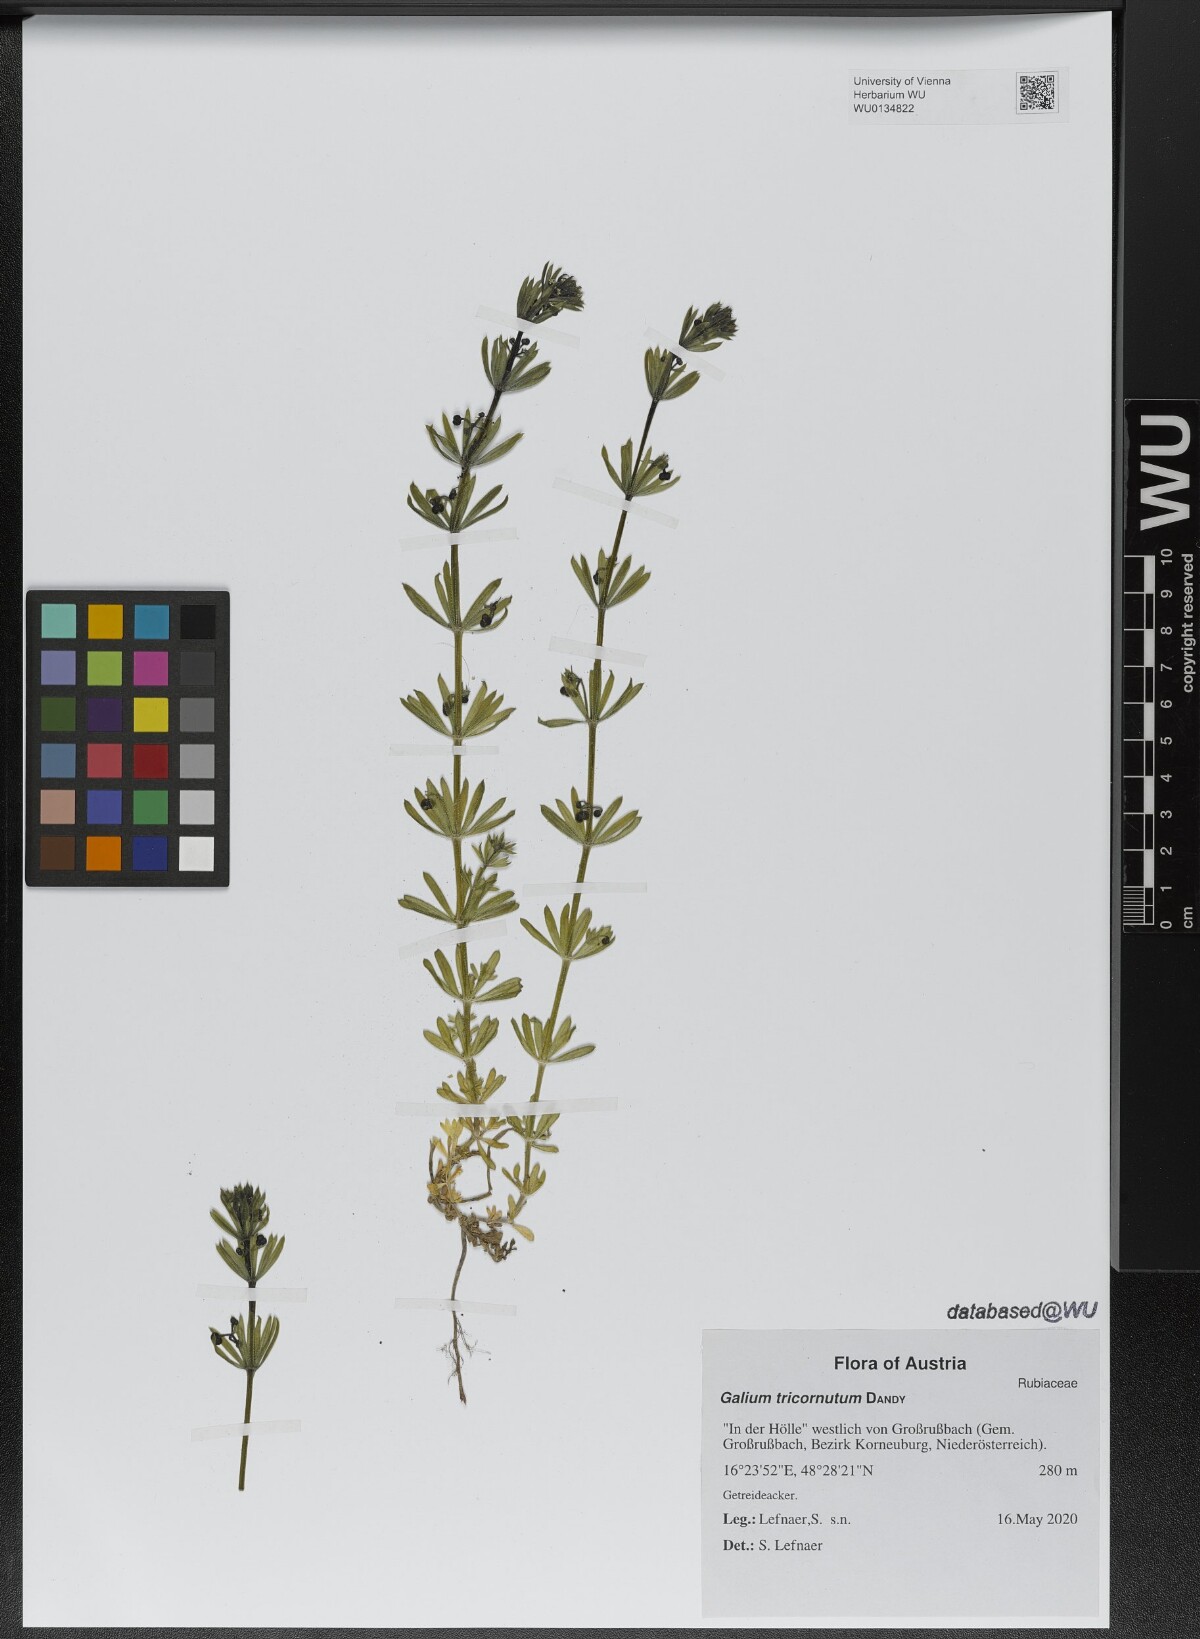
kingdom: Plantae
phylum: Tracheophyta
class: Magnoliopsida
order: Gentianales
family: Rubiaceae
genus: Galium
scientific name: Galium tricornutum
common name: Corn cleavers
